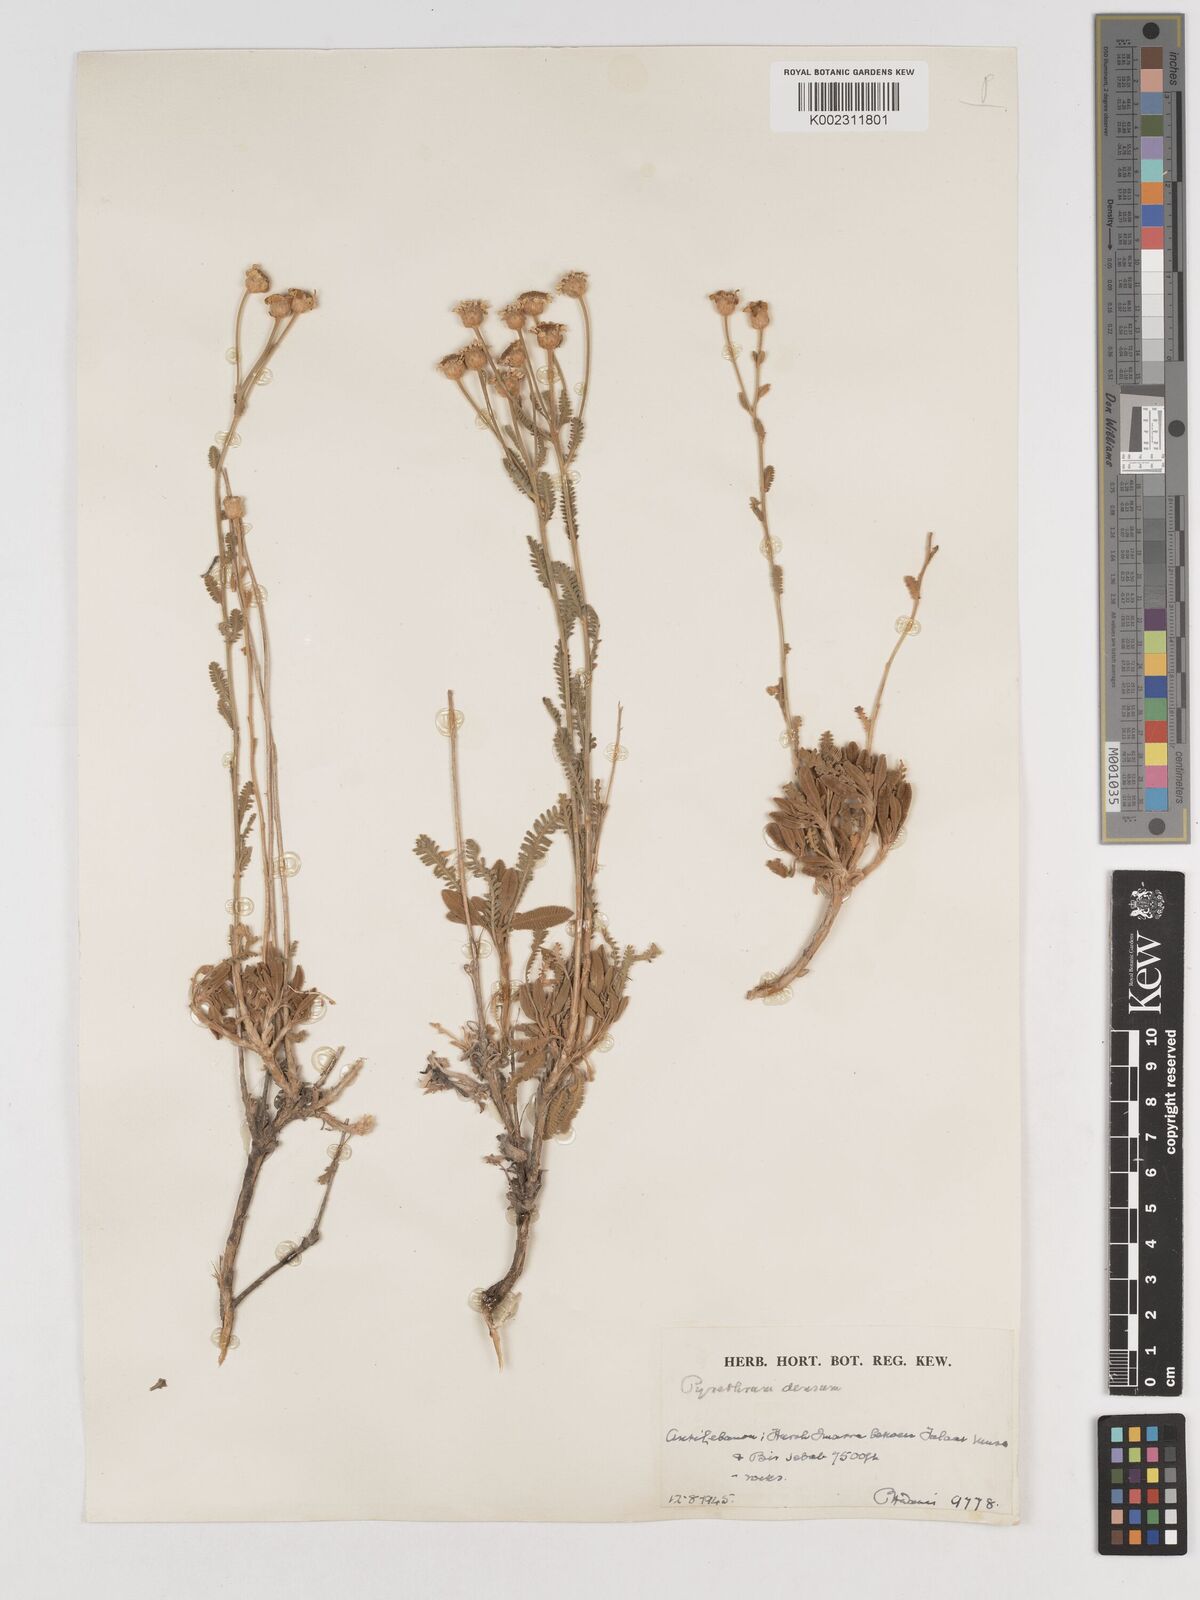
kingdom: Plantae
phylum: Tracheophyta
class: Magnoliopsida
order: Asterales
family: Asteraceae
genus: Tanacetum
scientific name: Tanacetum densum
